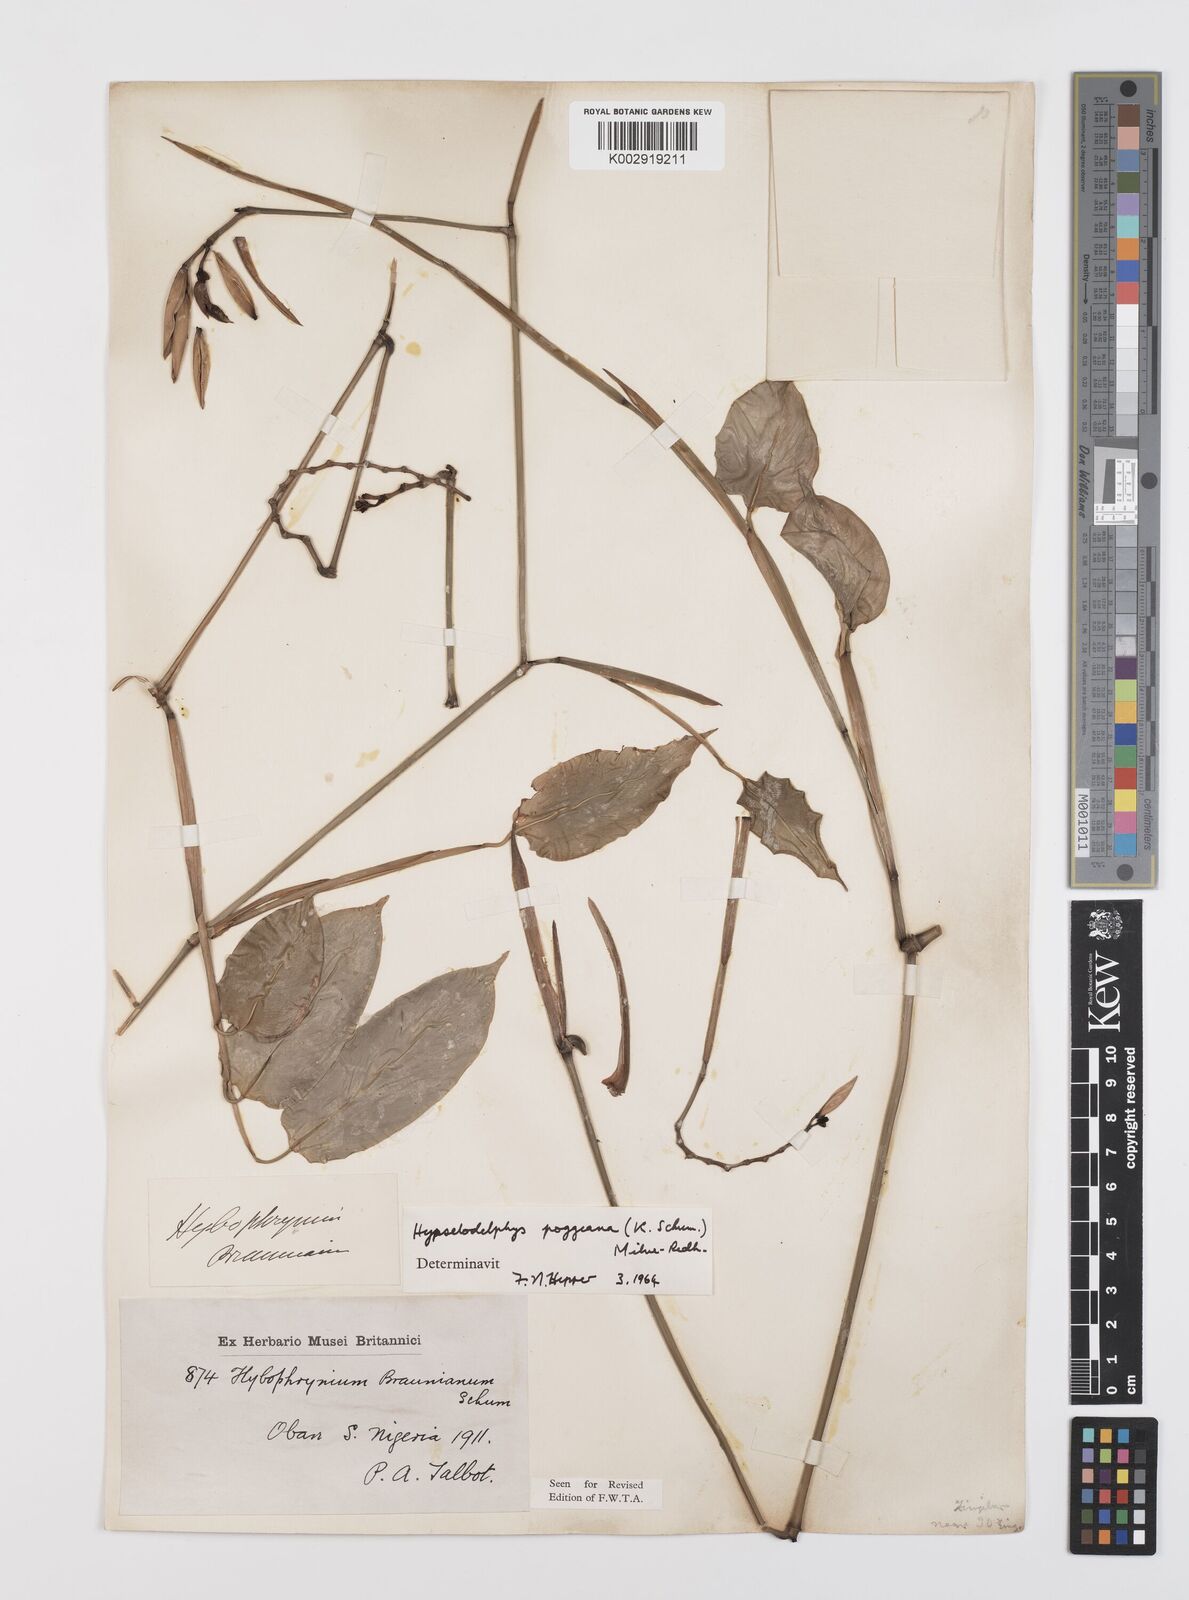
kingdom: Plantae
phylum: Tracheophyta
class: Liliopsida
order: Zingiberales
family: Marantaceae
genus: Hypselodelphys
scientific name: Hypselodelphys poggeana
